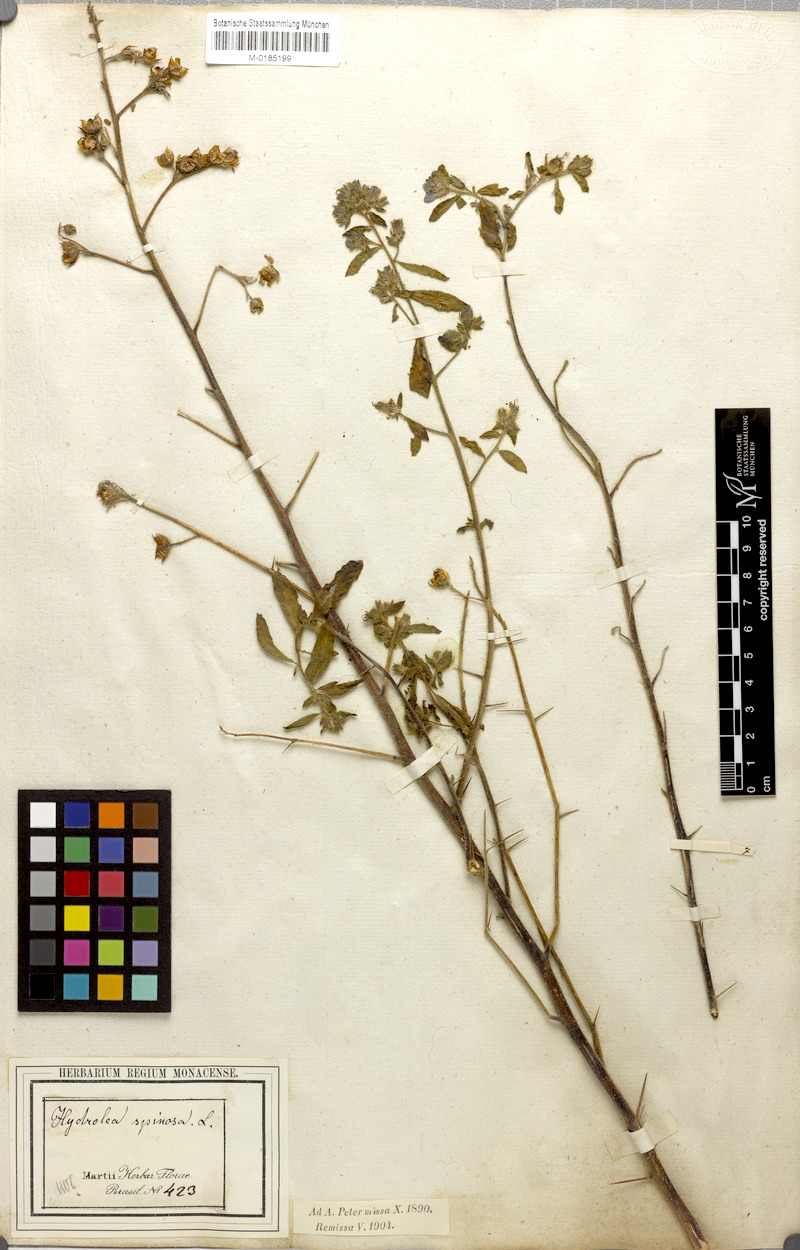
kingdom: Plantae
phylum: Tracheophyta
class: Magnoliopsida
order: Solanales
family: Hydroleaceae
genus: Hydrolea
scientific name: Hydrolea spinosa
